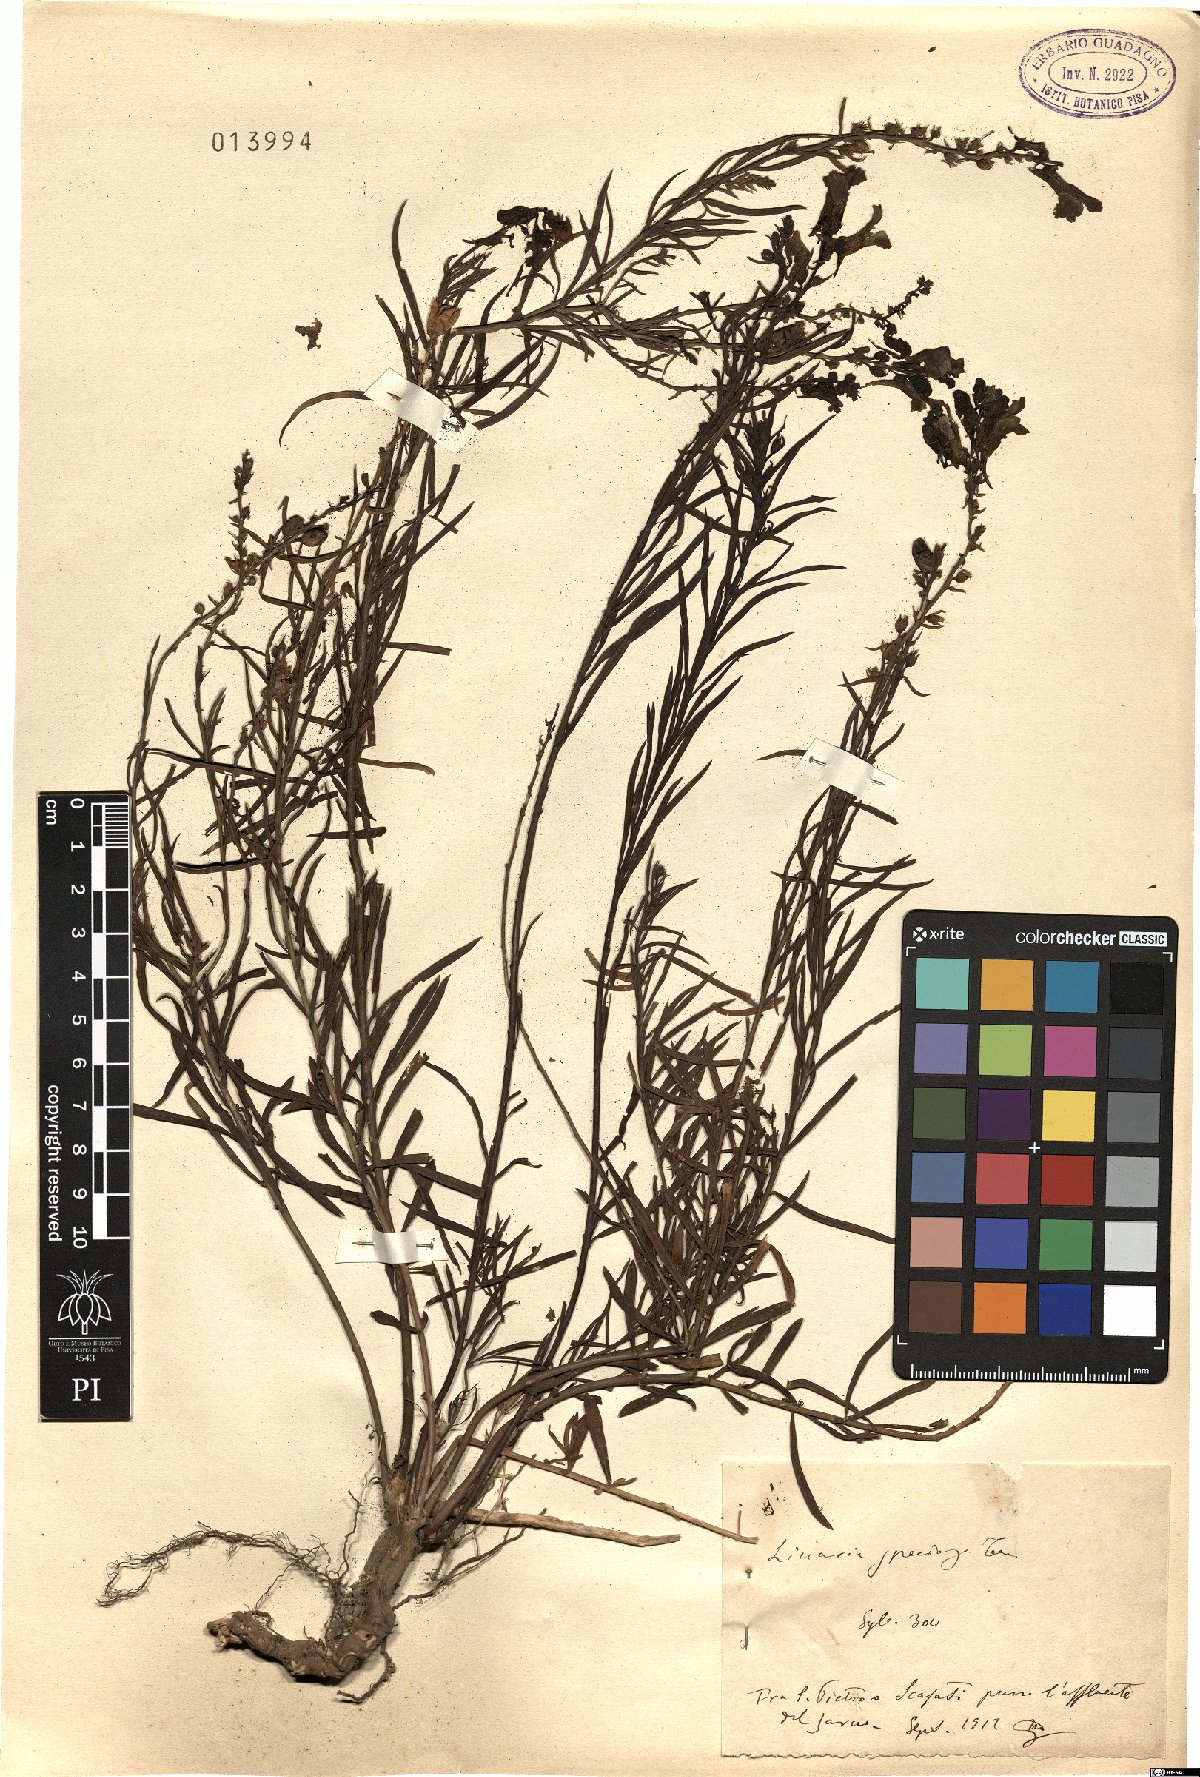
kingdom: Plantae
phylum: Tracheophyta
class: Magnoliopsida
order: Lamiales
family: Plantaginaceae
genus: Linaria
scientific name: Linaria vulgaris
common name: Butter and eggs
